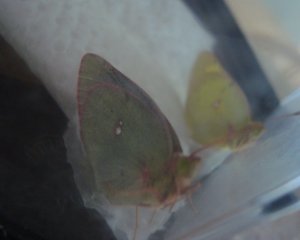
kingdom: Animalia
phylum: Arthropoda
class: Insecta
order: Lepidoptera
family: Pieridae
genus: Colias
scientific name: Colias philodice
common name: Clouded Sulphur
